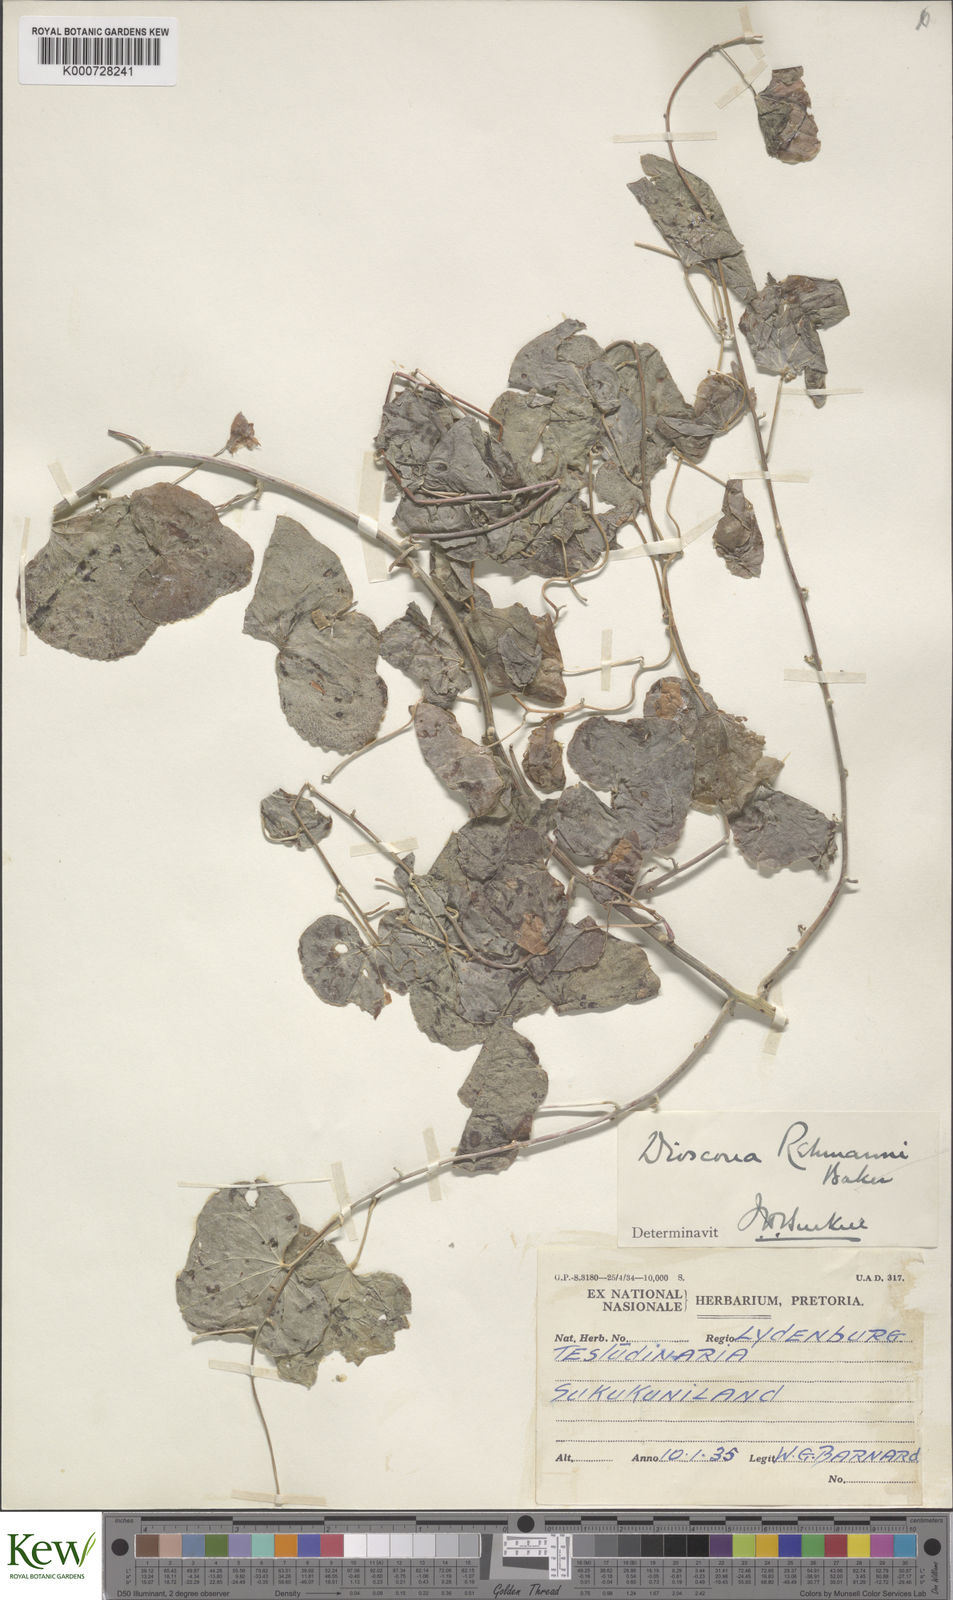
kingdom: Plantae
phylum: Tracheophyta
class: Liliopsida
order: Dioscoreales
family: Dioscoreaceae
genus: Dioscorea
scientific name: Dioscorea sylvatica
